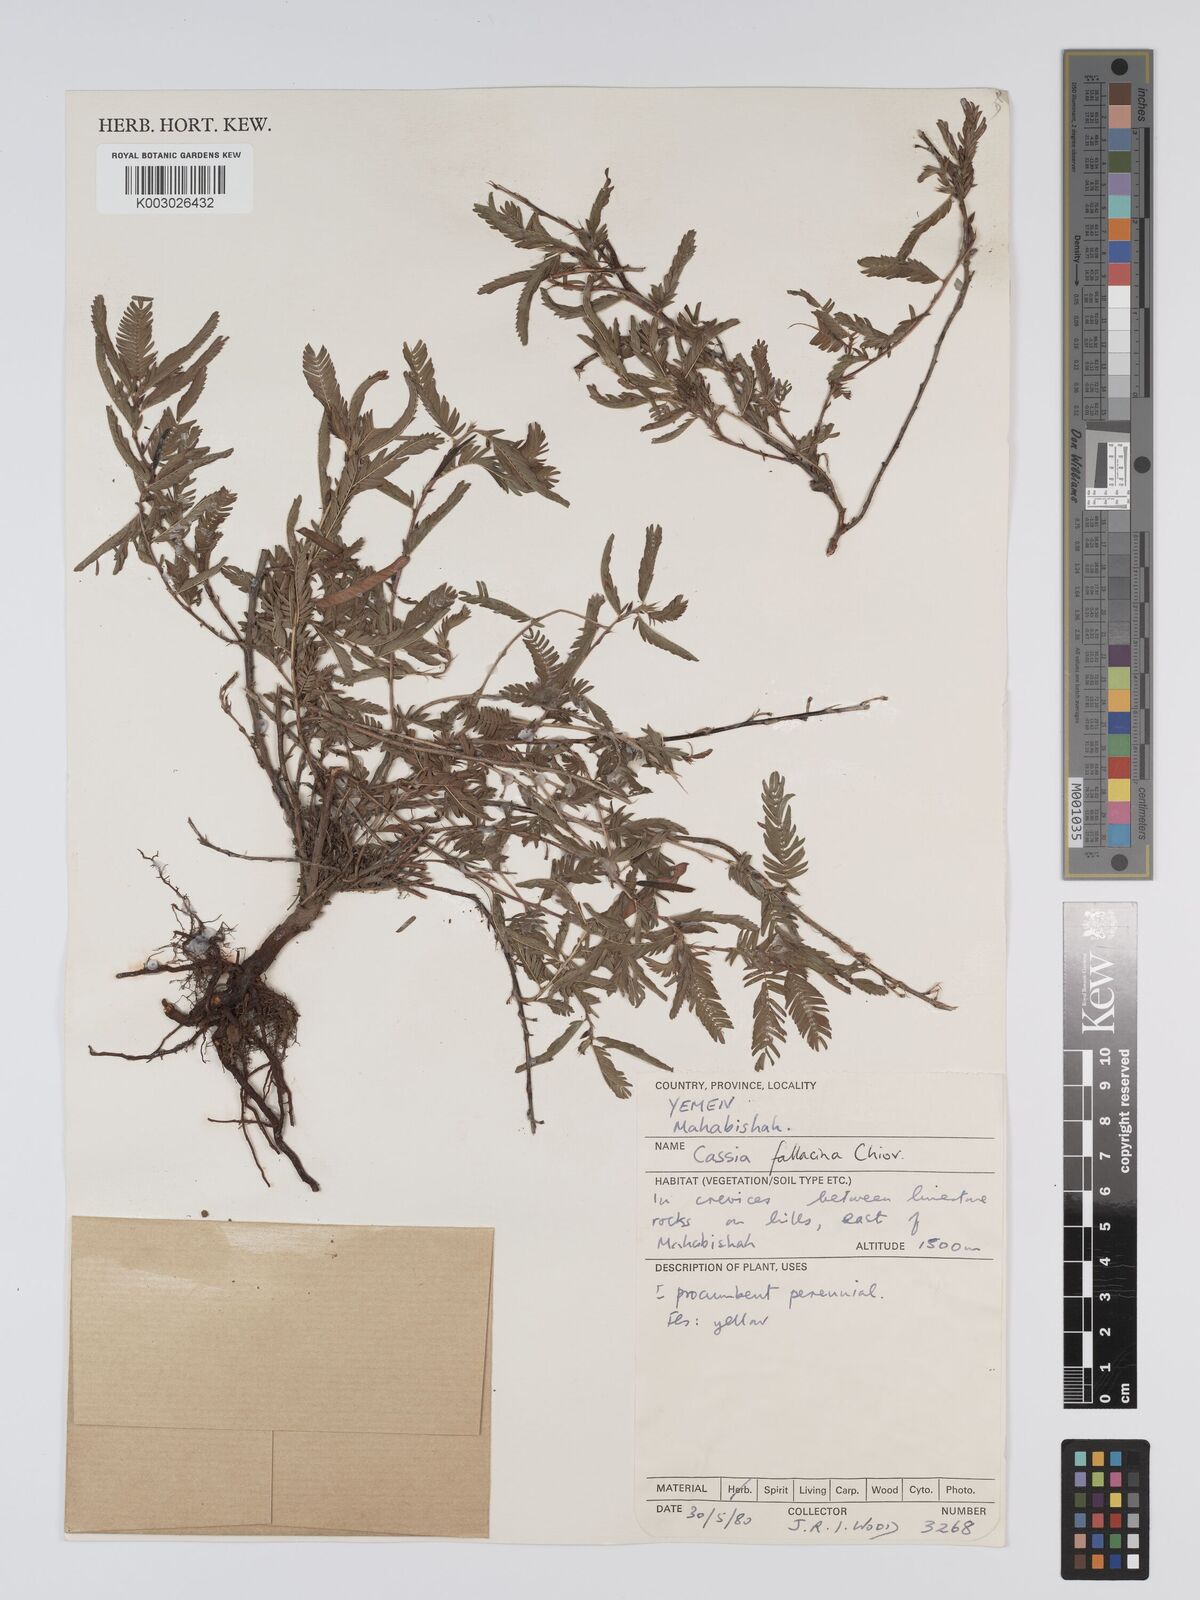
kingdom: Plantae
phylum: Tracheophyta
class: Magnoliopsida
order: Fabales
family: Fabaceae
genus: Chamaecrista
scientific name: Chamaecrista fallacina
